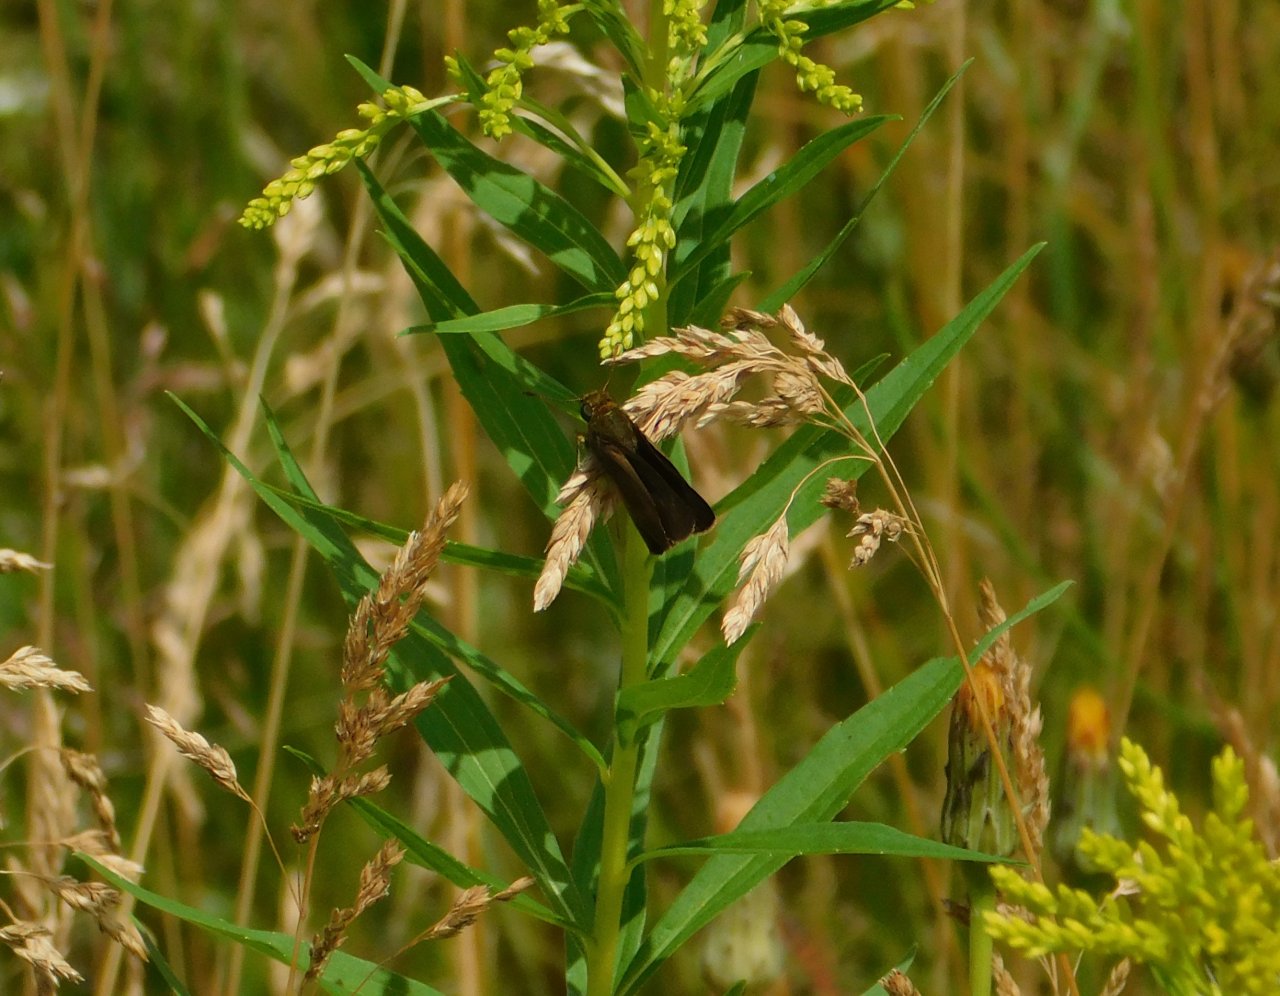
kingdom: Animalia
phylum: Arthropoda
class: Insecta
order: Lepidoptera
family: Hesperiidae
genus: Euphyes
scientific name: Euphyes vestris
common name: Dun Skipper
